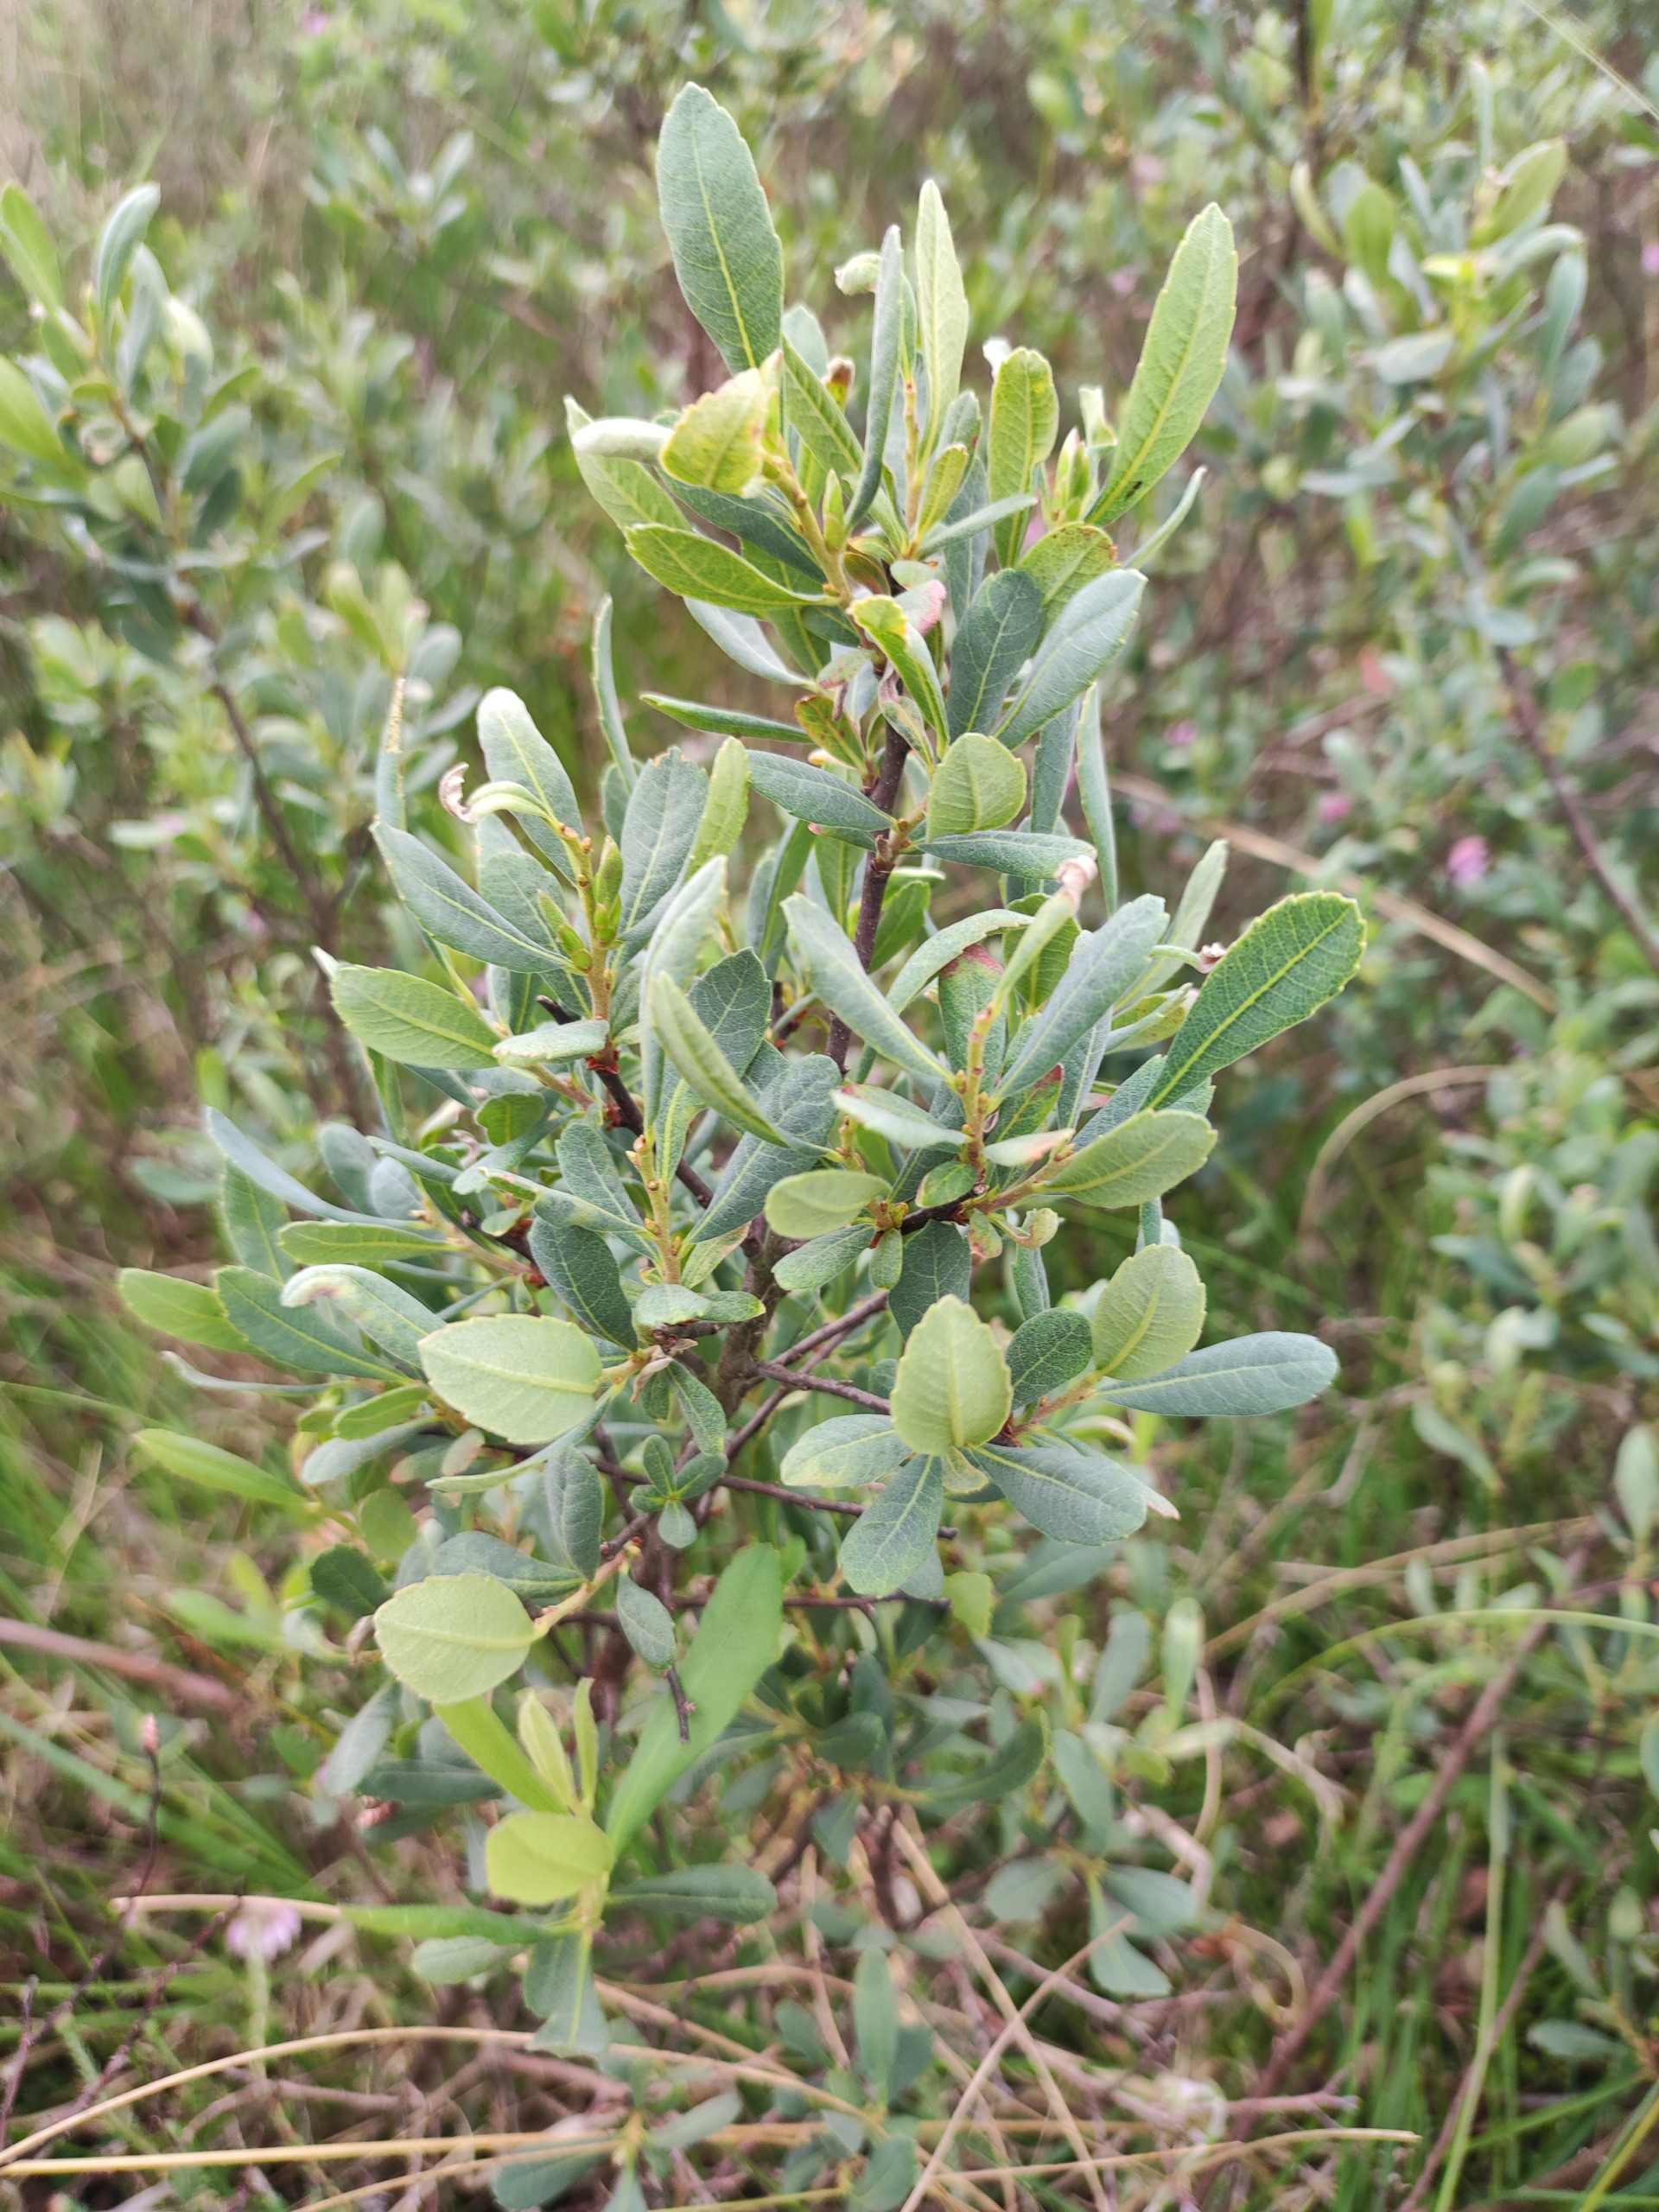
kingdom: Plantae
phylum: Tracheophyta
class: Magnoliopsida
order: Fagales
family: Myricaceae
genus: Myrica
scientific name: Myrica gale
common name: Pors
